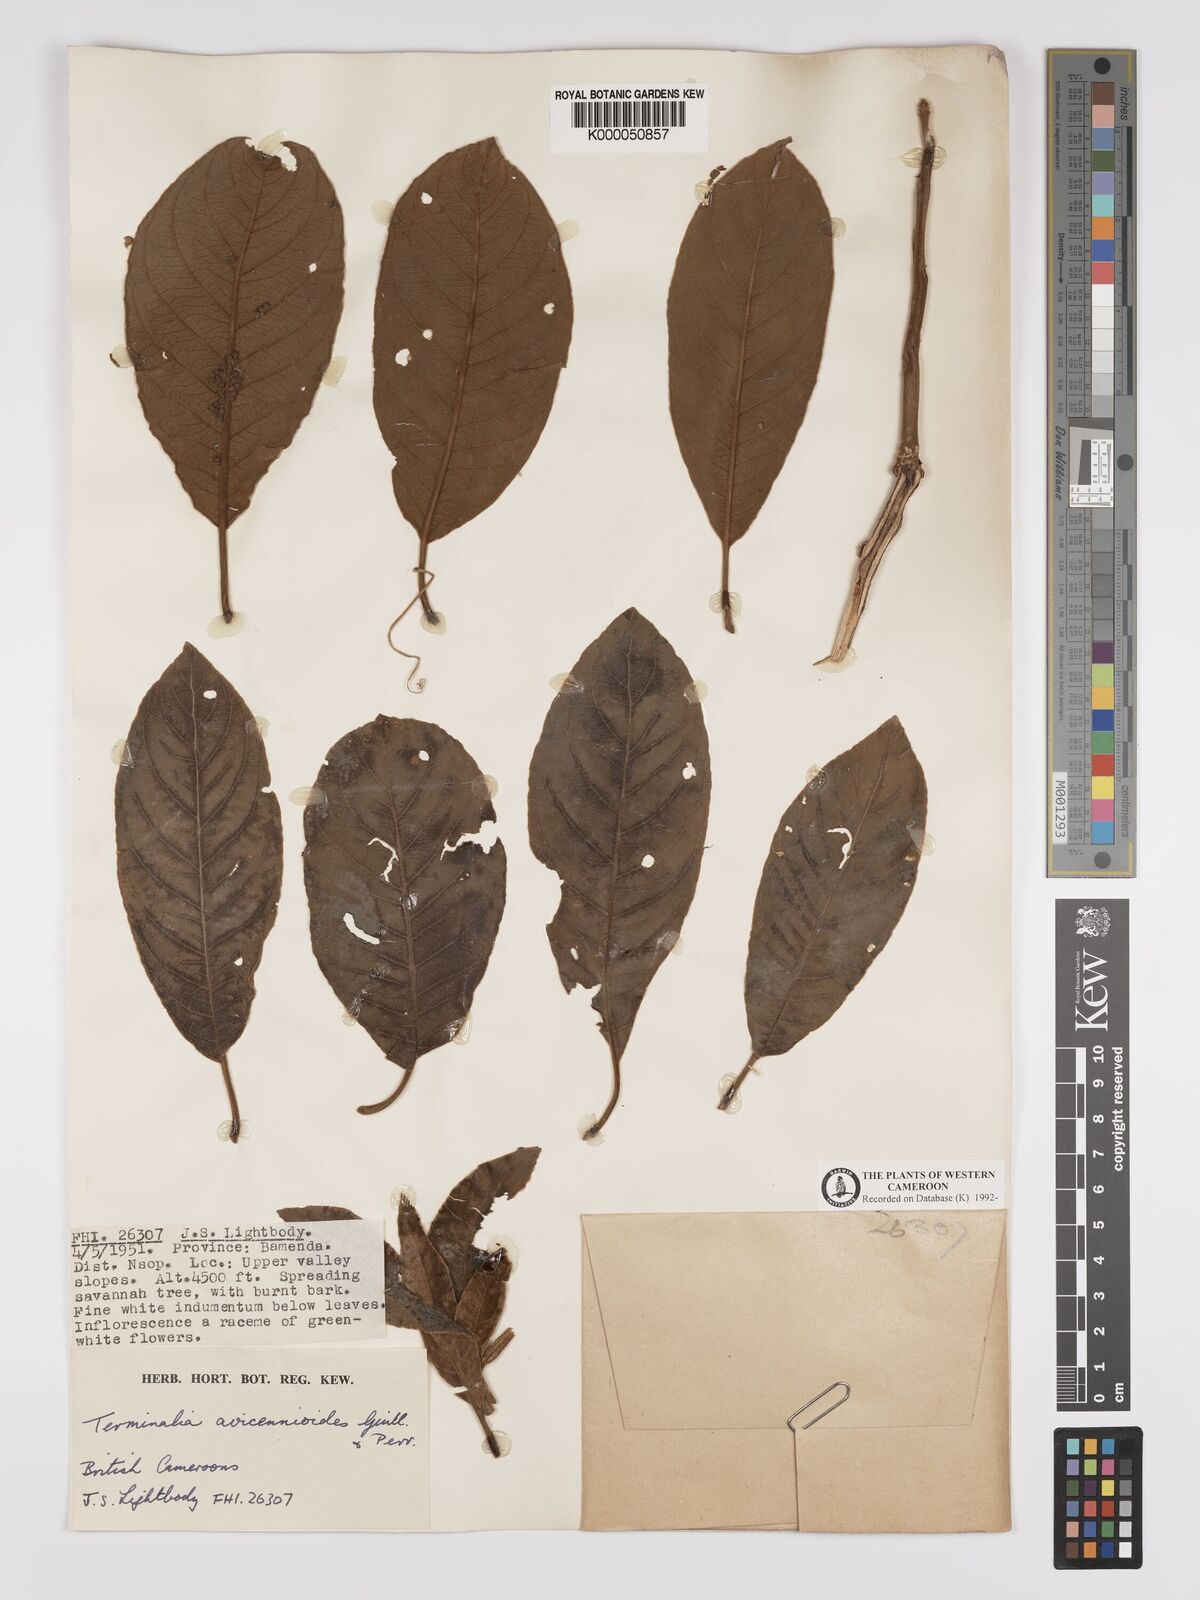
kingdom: Plantae
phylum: Tracheophyta
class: Magnoliopsida
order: Myrtales
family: Combretaceae
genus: Terminalia
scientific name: Terminalia avicennioides
